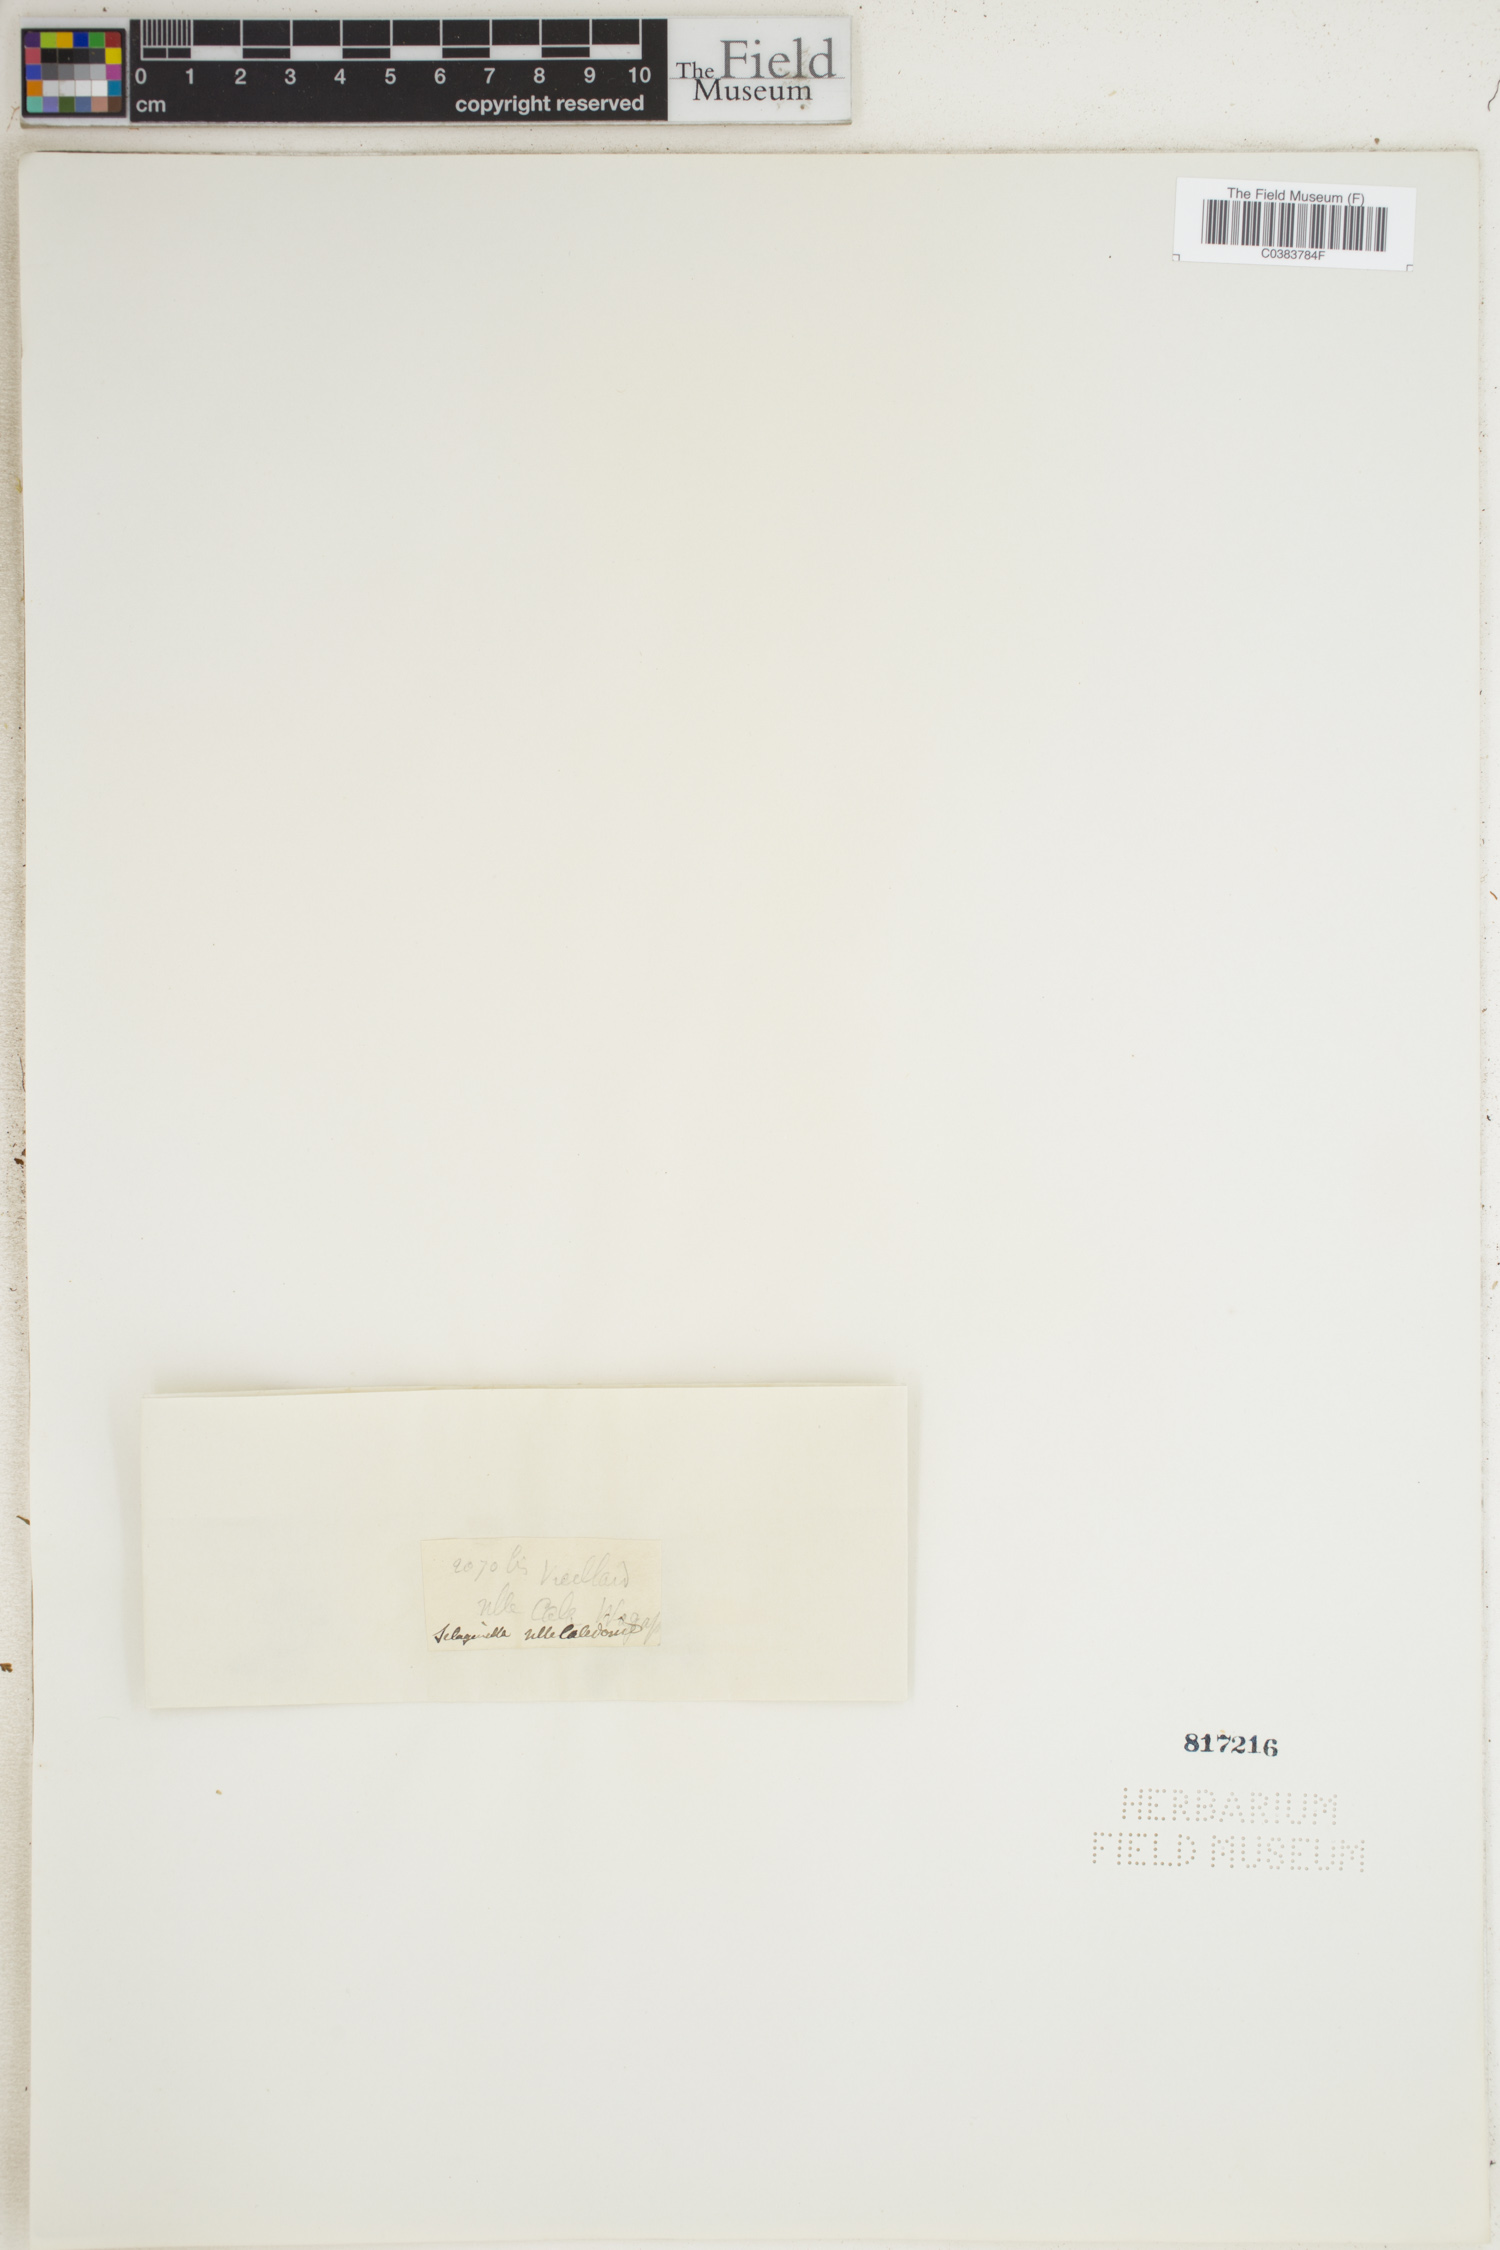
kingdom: Plantae
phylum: Tracheophyta
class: Lycopodiopsida
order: Selaginellales
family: Selaginellaceae
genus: Selaginella
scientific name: Selaginella
